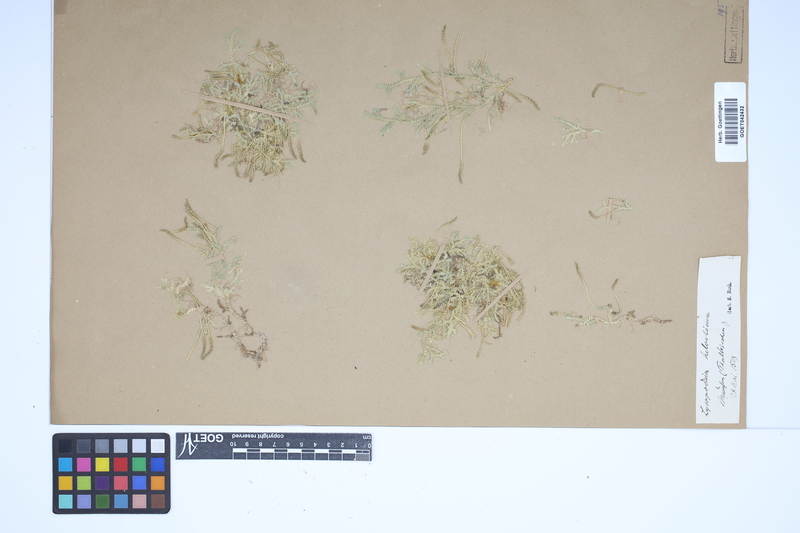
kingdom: Plantae
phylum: Tracheophyta
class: Lycopodiopsida
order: Selaginellales
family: Selaginellaceae
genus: Selaginella
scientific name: Selaginella helvetica
